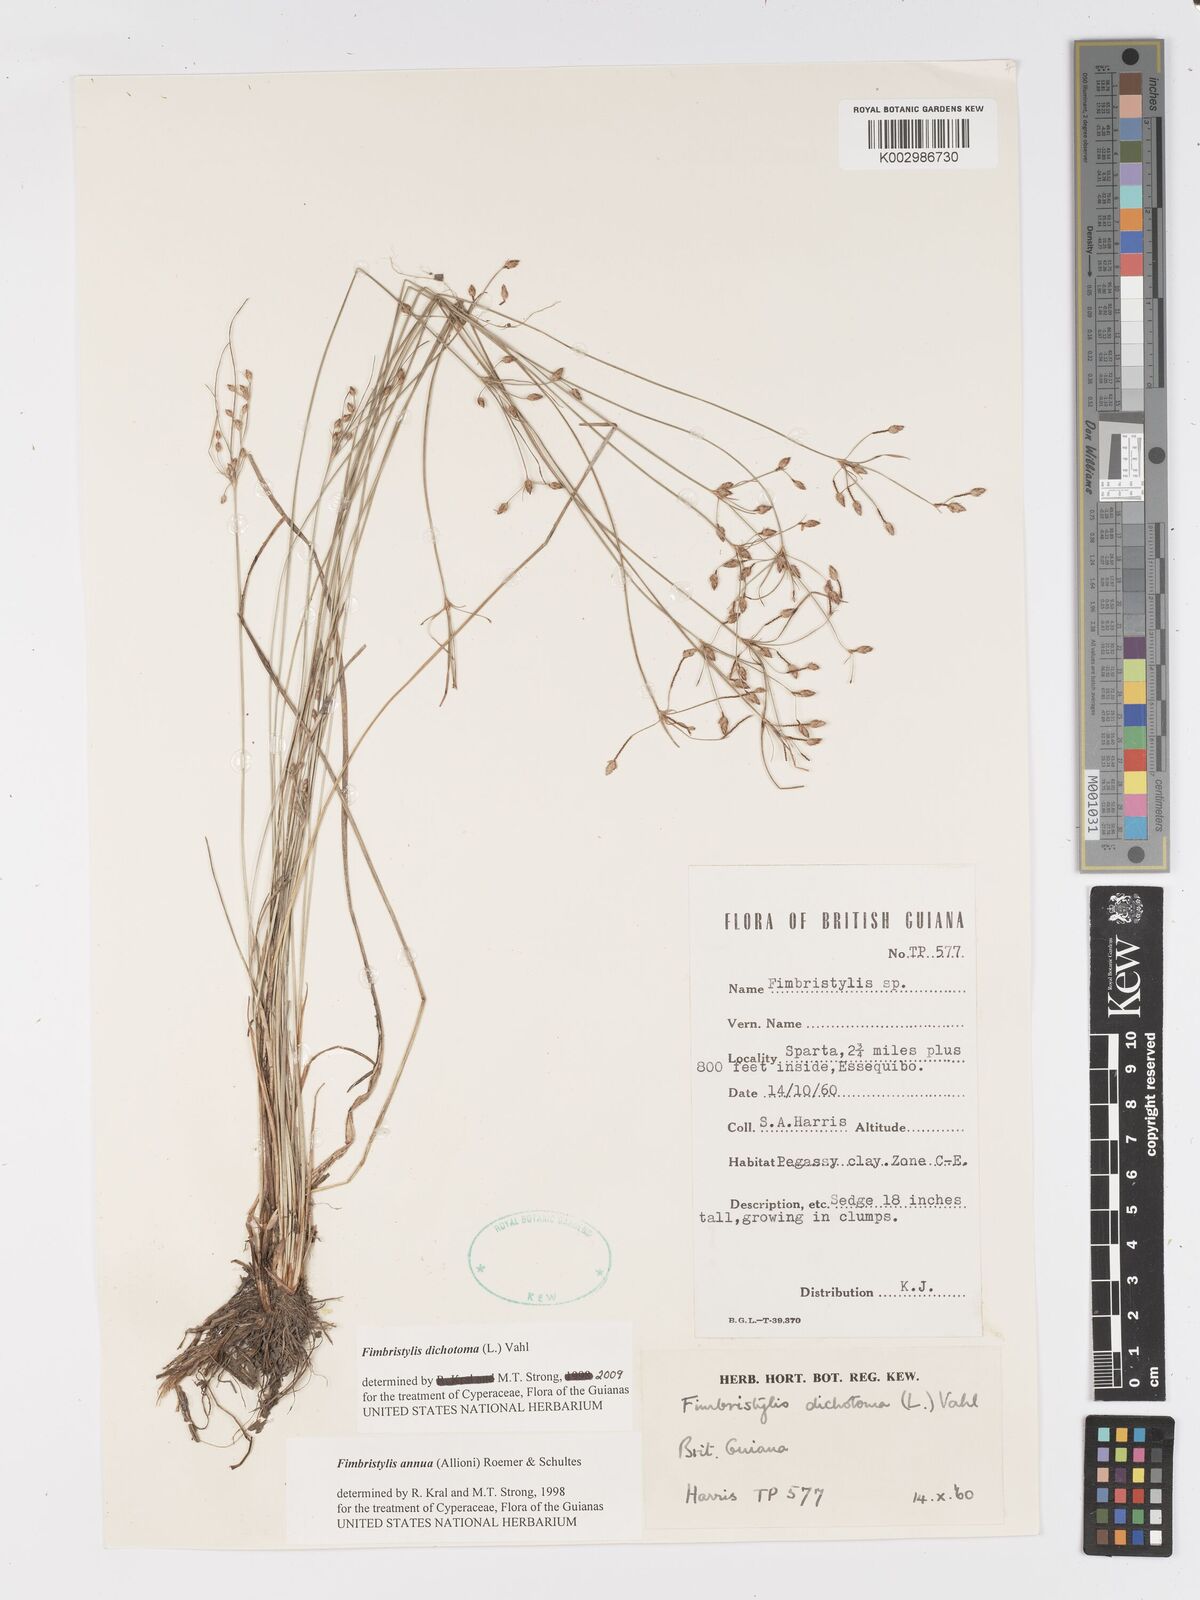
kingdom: Plantae
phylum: Tracheophyta
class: Liliopsida
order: Poales
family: Cyperaceae
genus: Fimbristylis
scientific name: Fimbristylis dichotoma
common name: Forked fimbry
